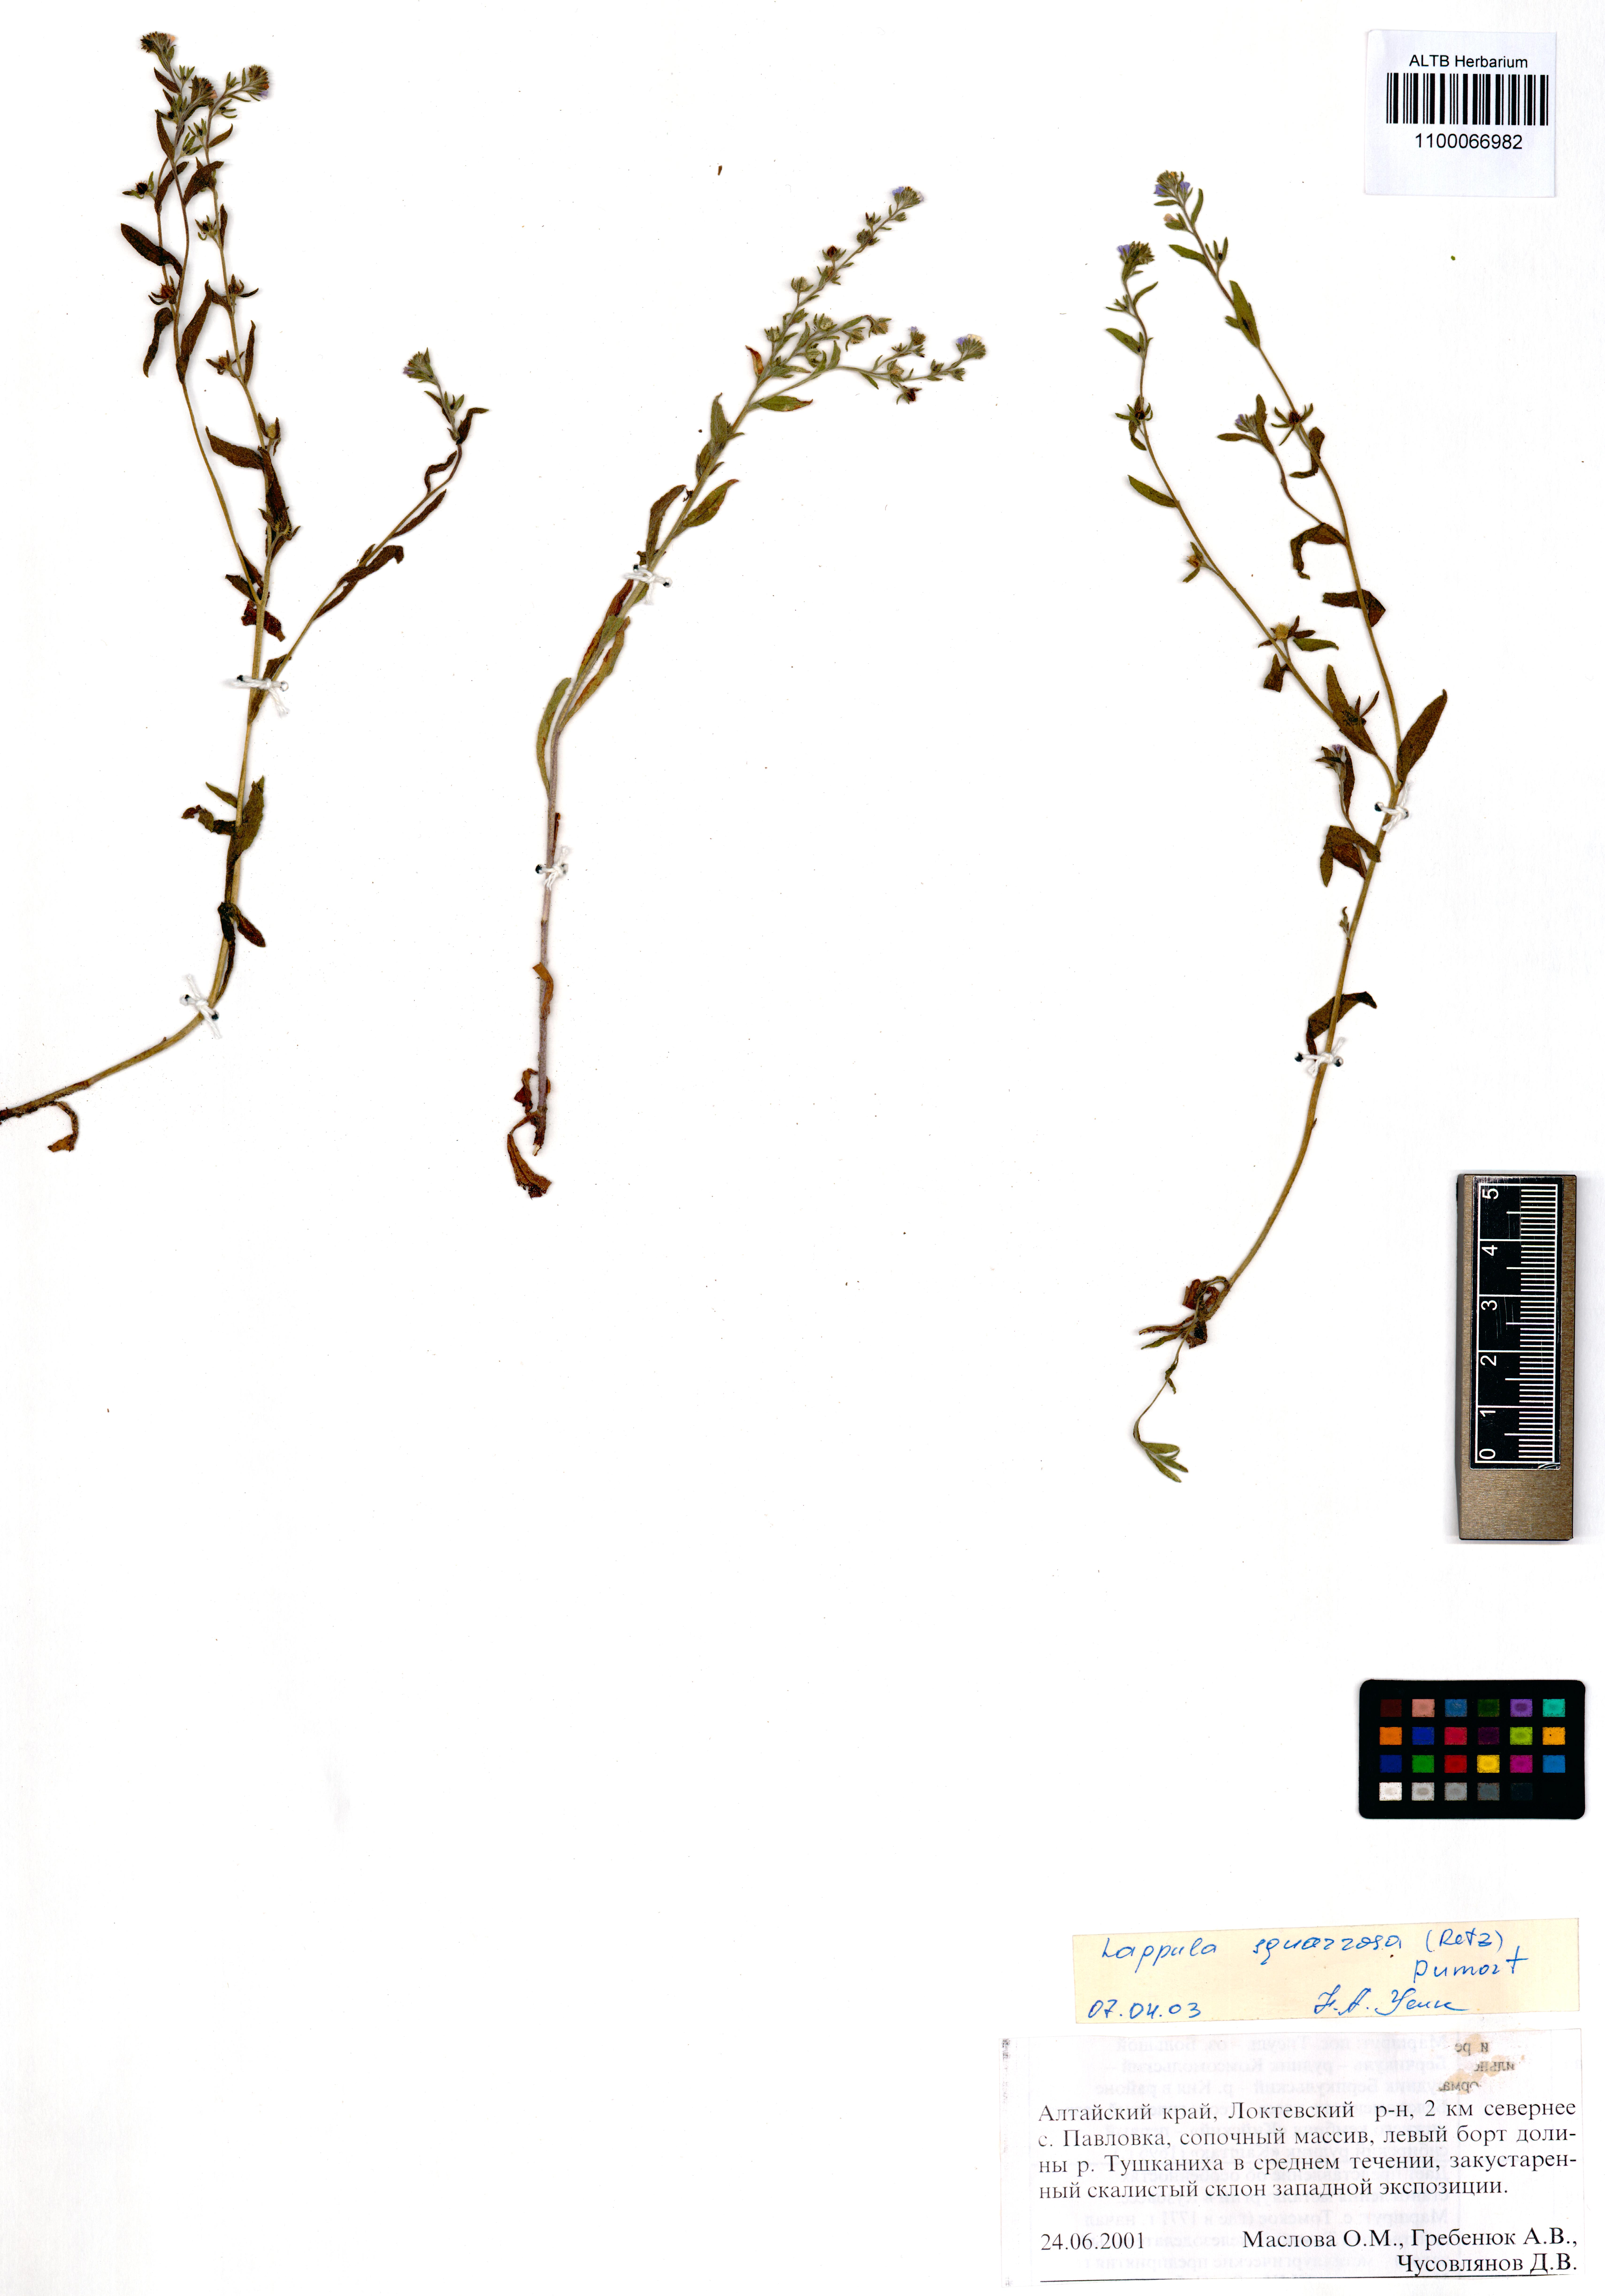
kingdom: Plantae
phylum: Tracheophyta
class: Magnoliopsida
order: Boraginales
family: Boraginaceae
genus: Lappula
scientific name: Lappula squarrosa
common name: European stickseed
